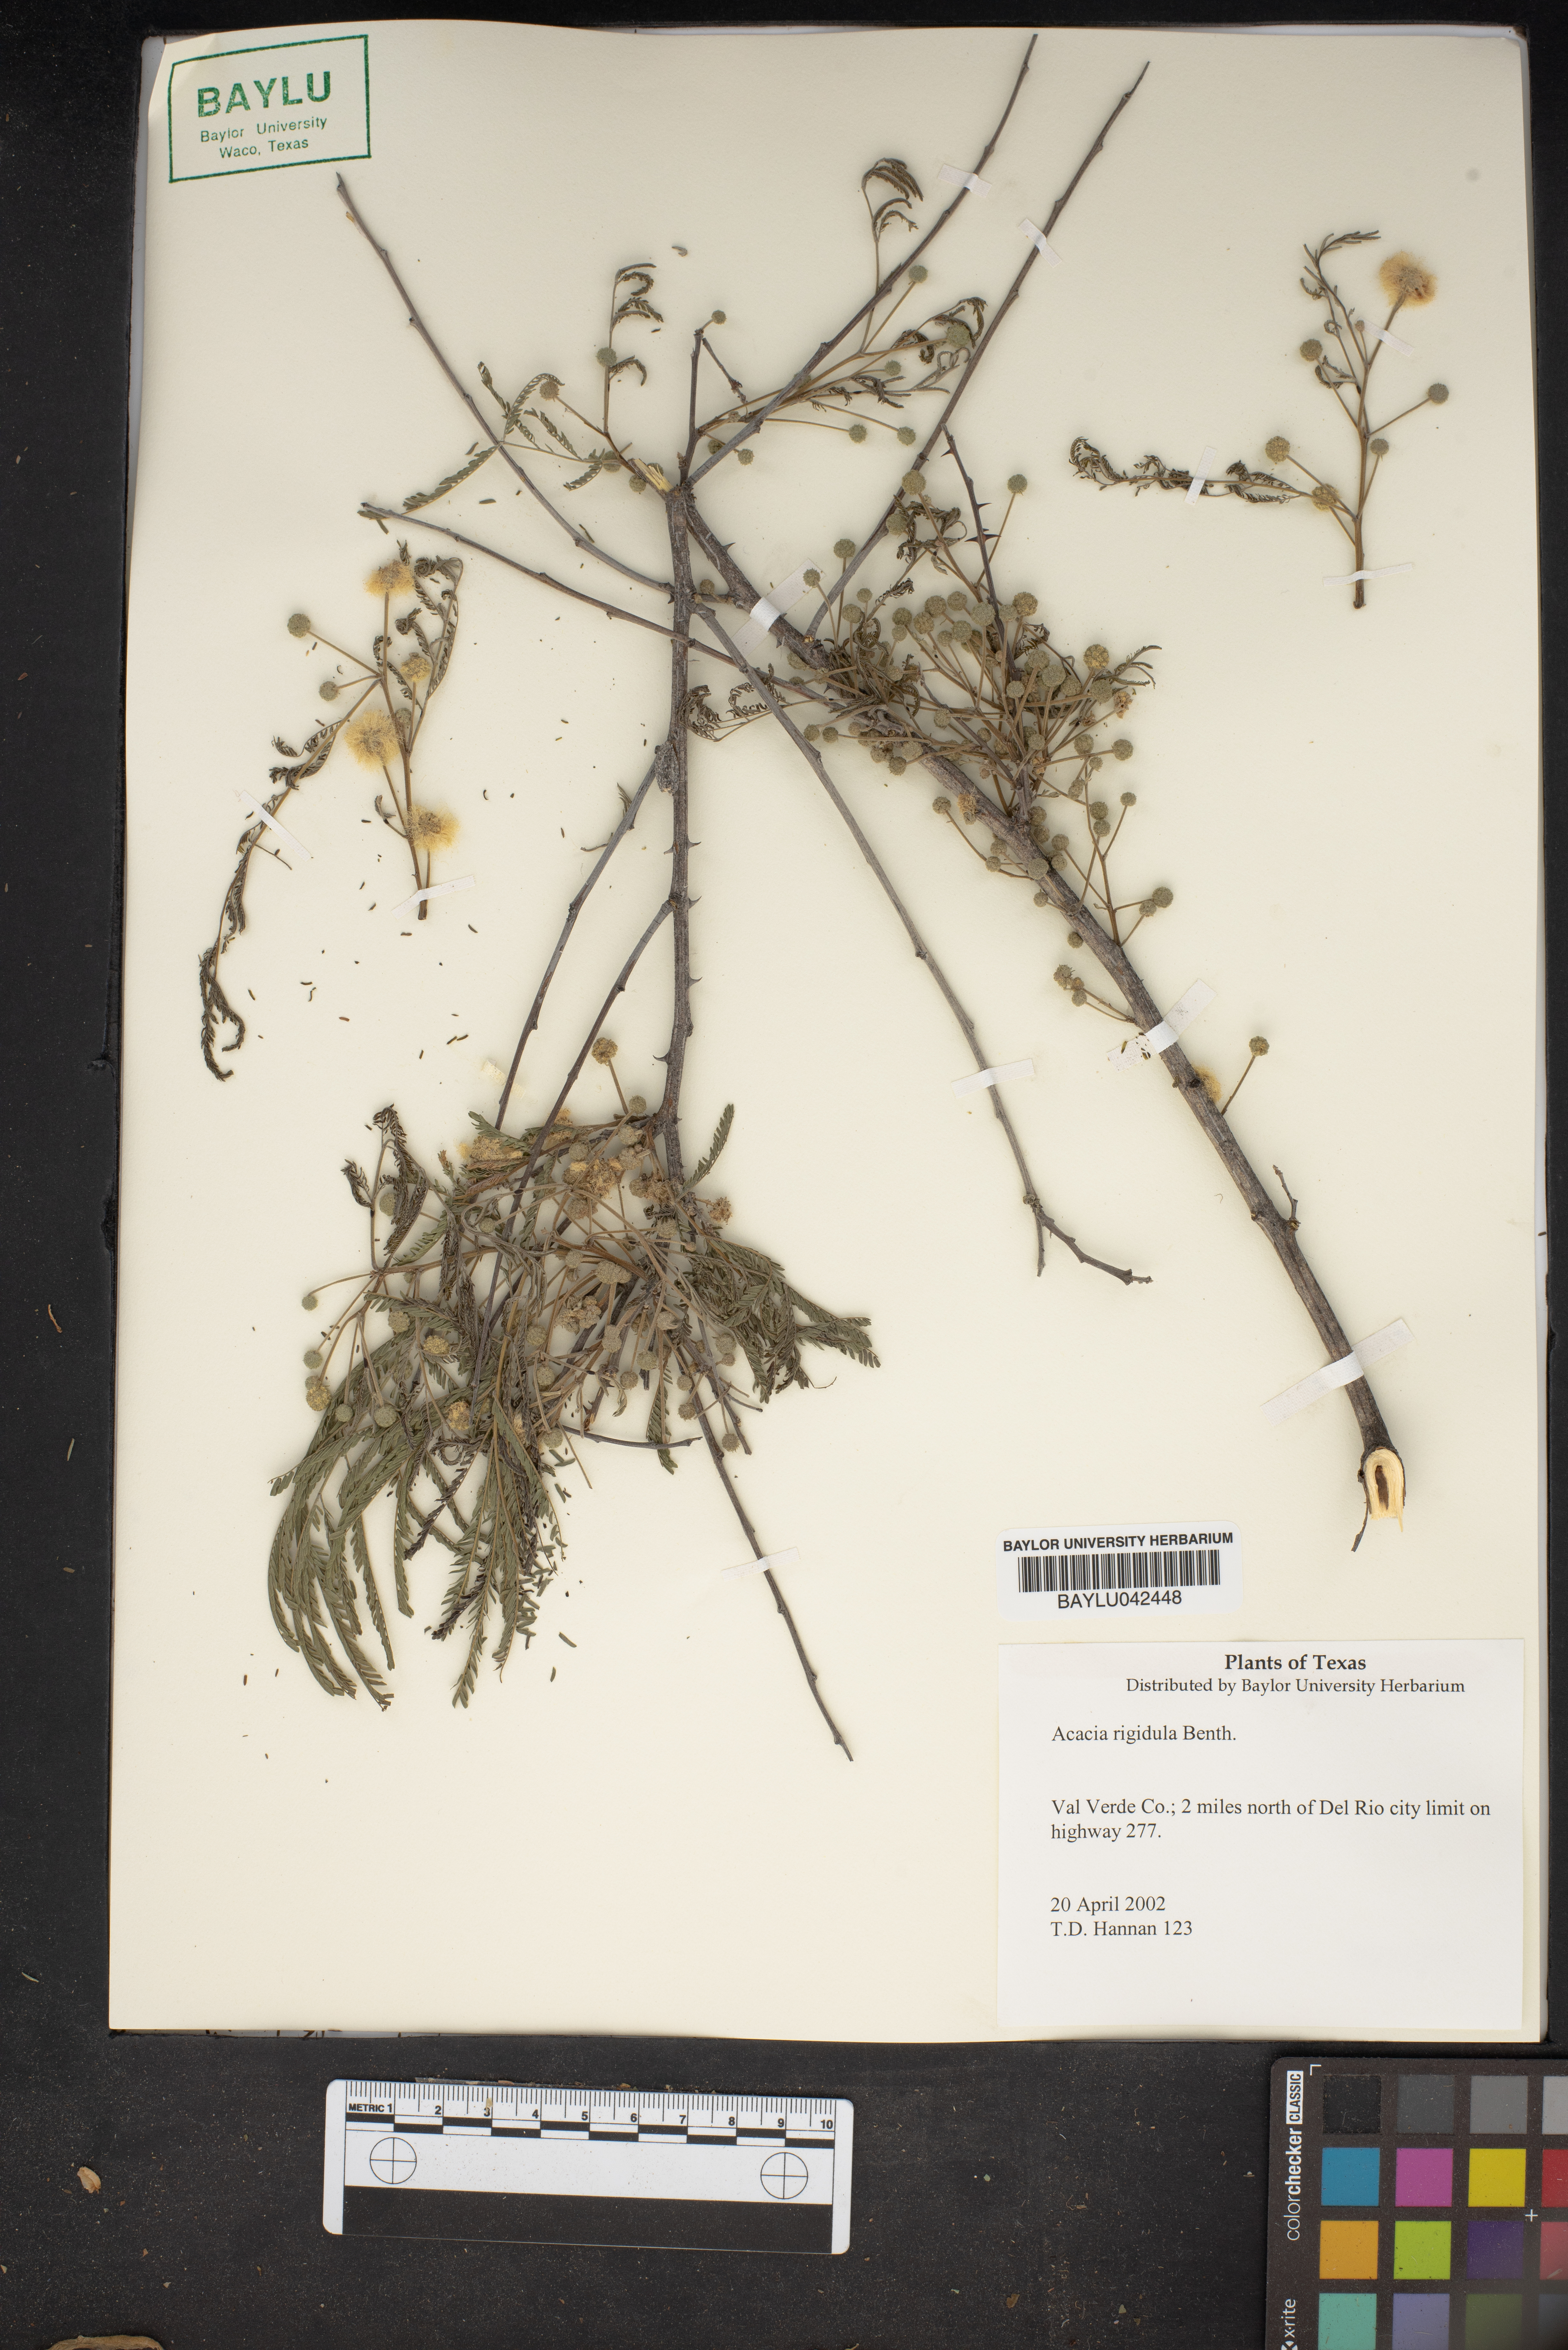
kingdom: Plantae
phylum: Tracheophyta
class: Magnoliopsida
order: Fabales
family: Fabaceae
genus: Vachellia
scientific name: Vachellia rigidula
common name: Blackbrush
